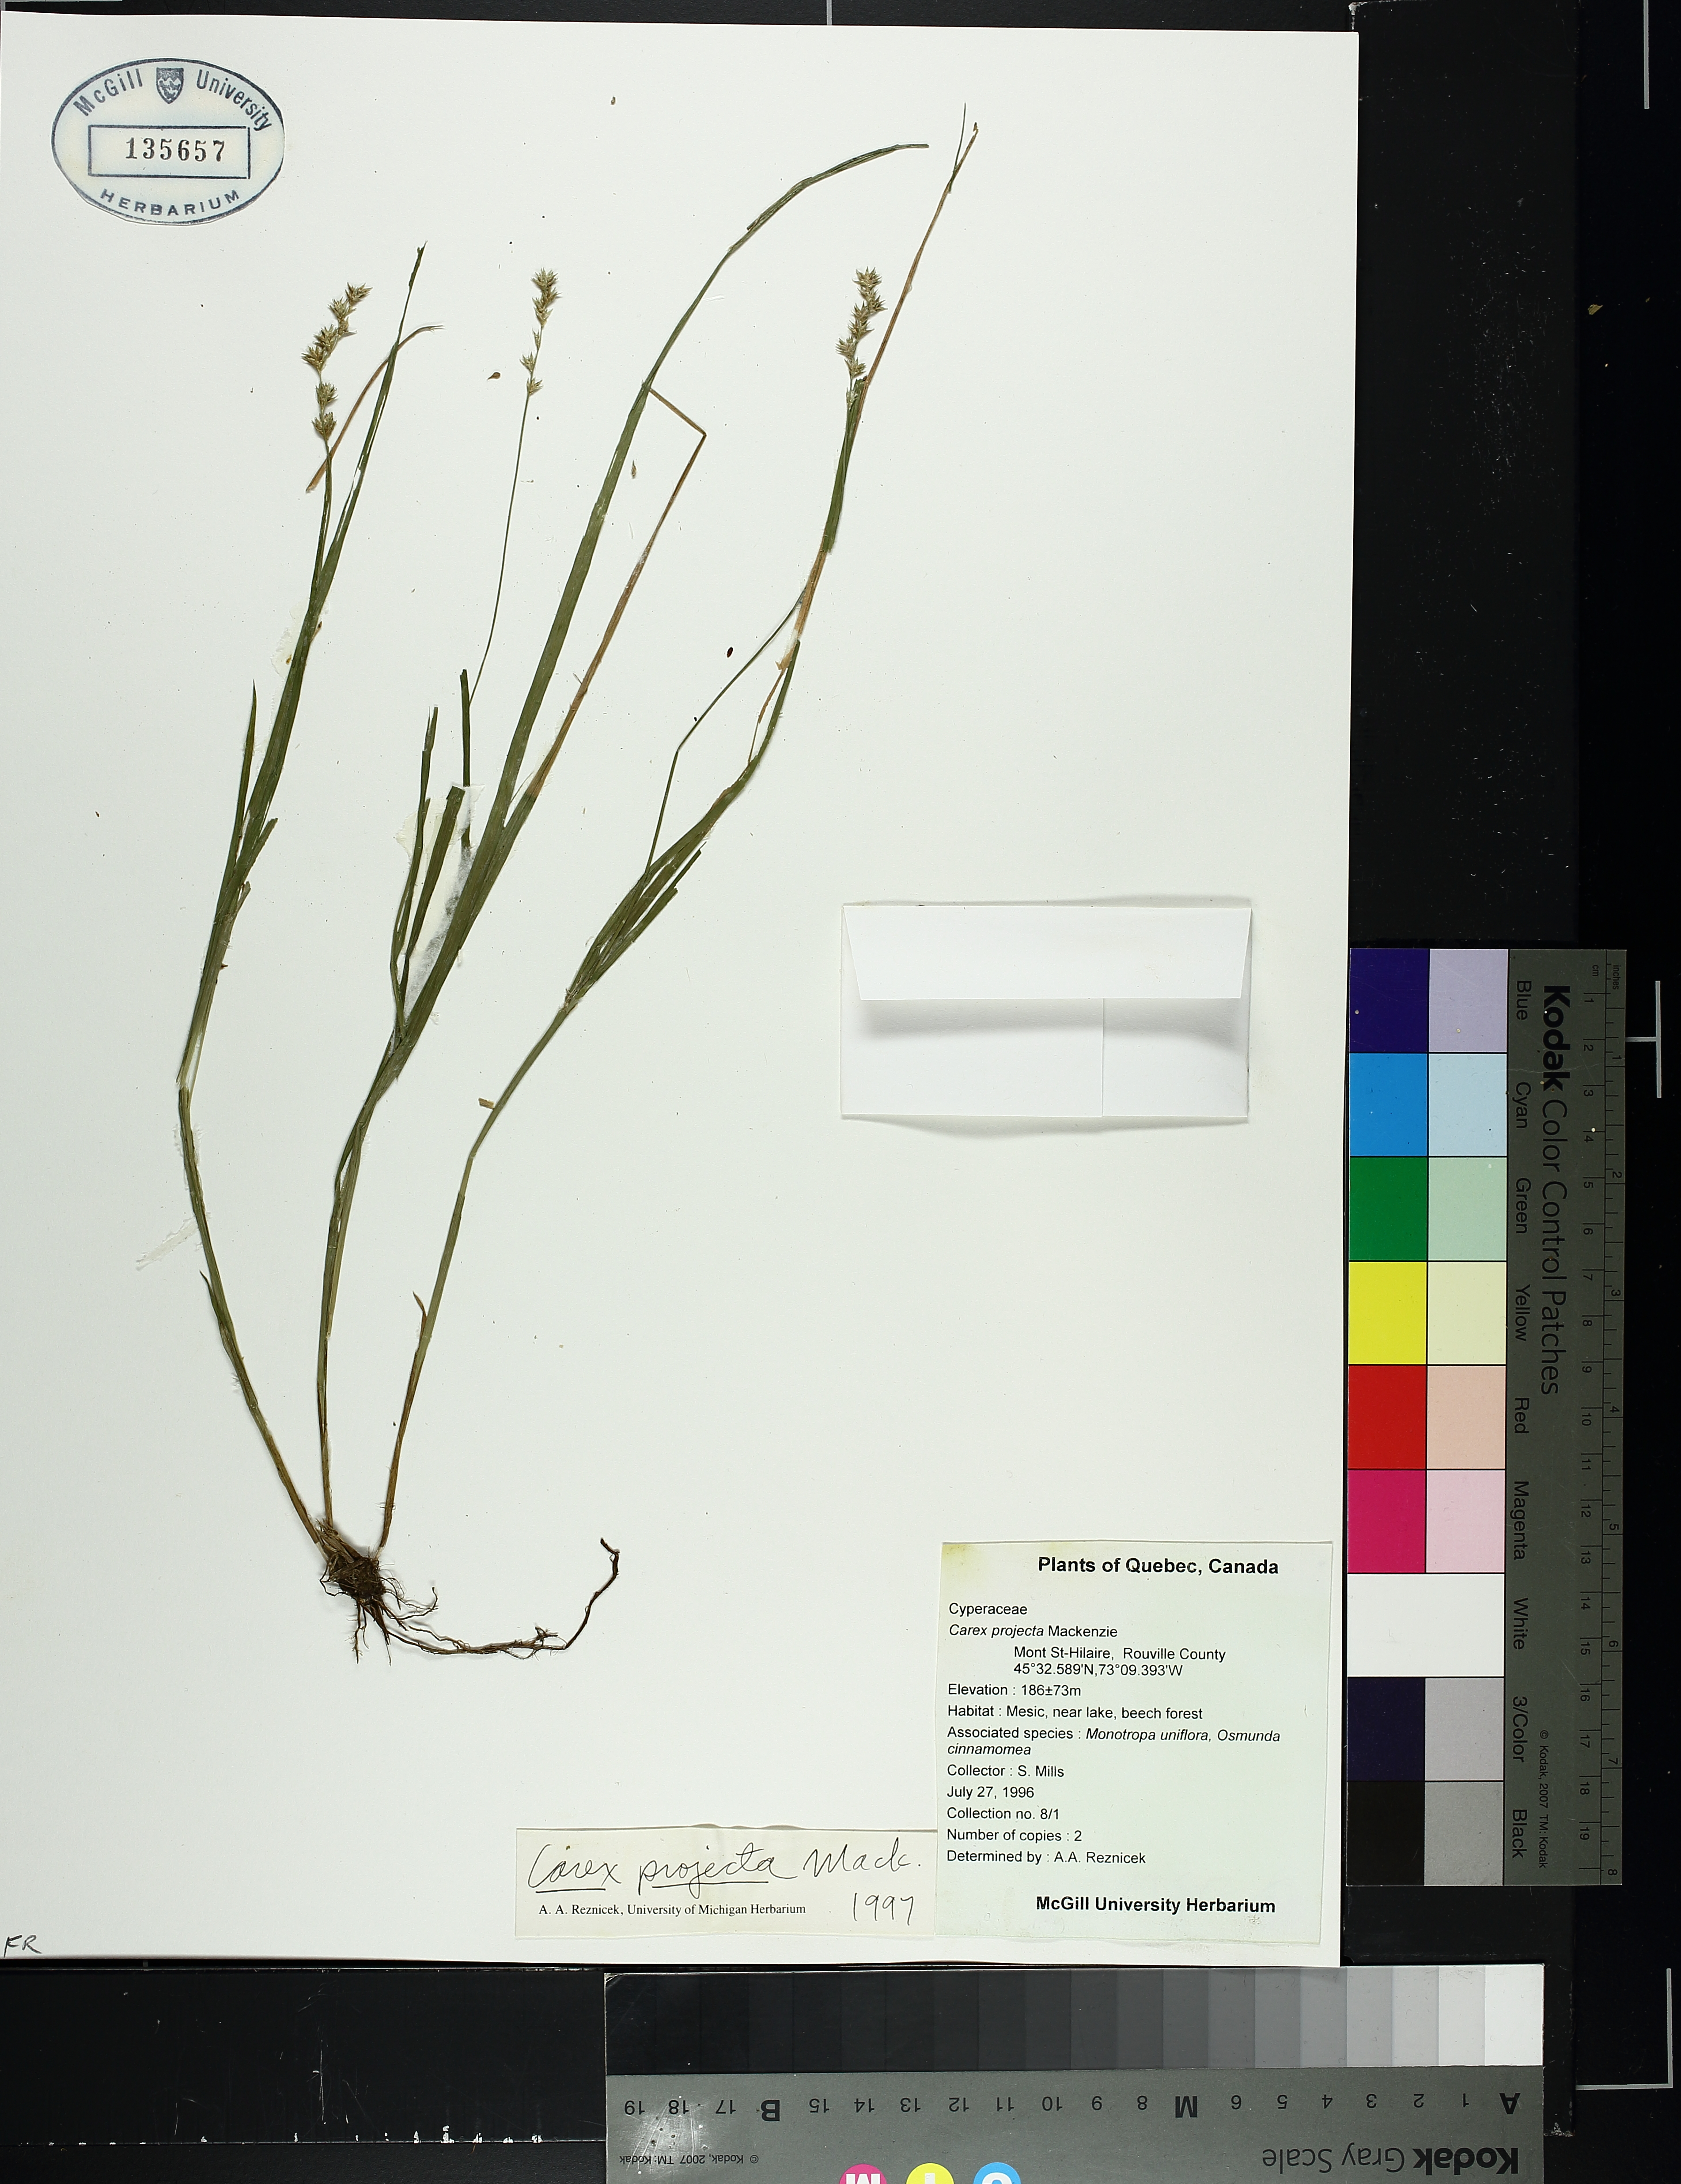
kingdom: Plantae
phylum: Tracheophyta
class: Liliopsida
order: Poales
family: Cyperaceae
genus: Carex
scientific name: Carex projecta
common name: Loose-headed oval sedge
